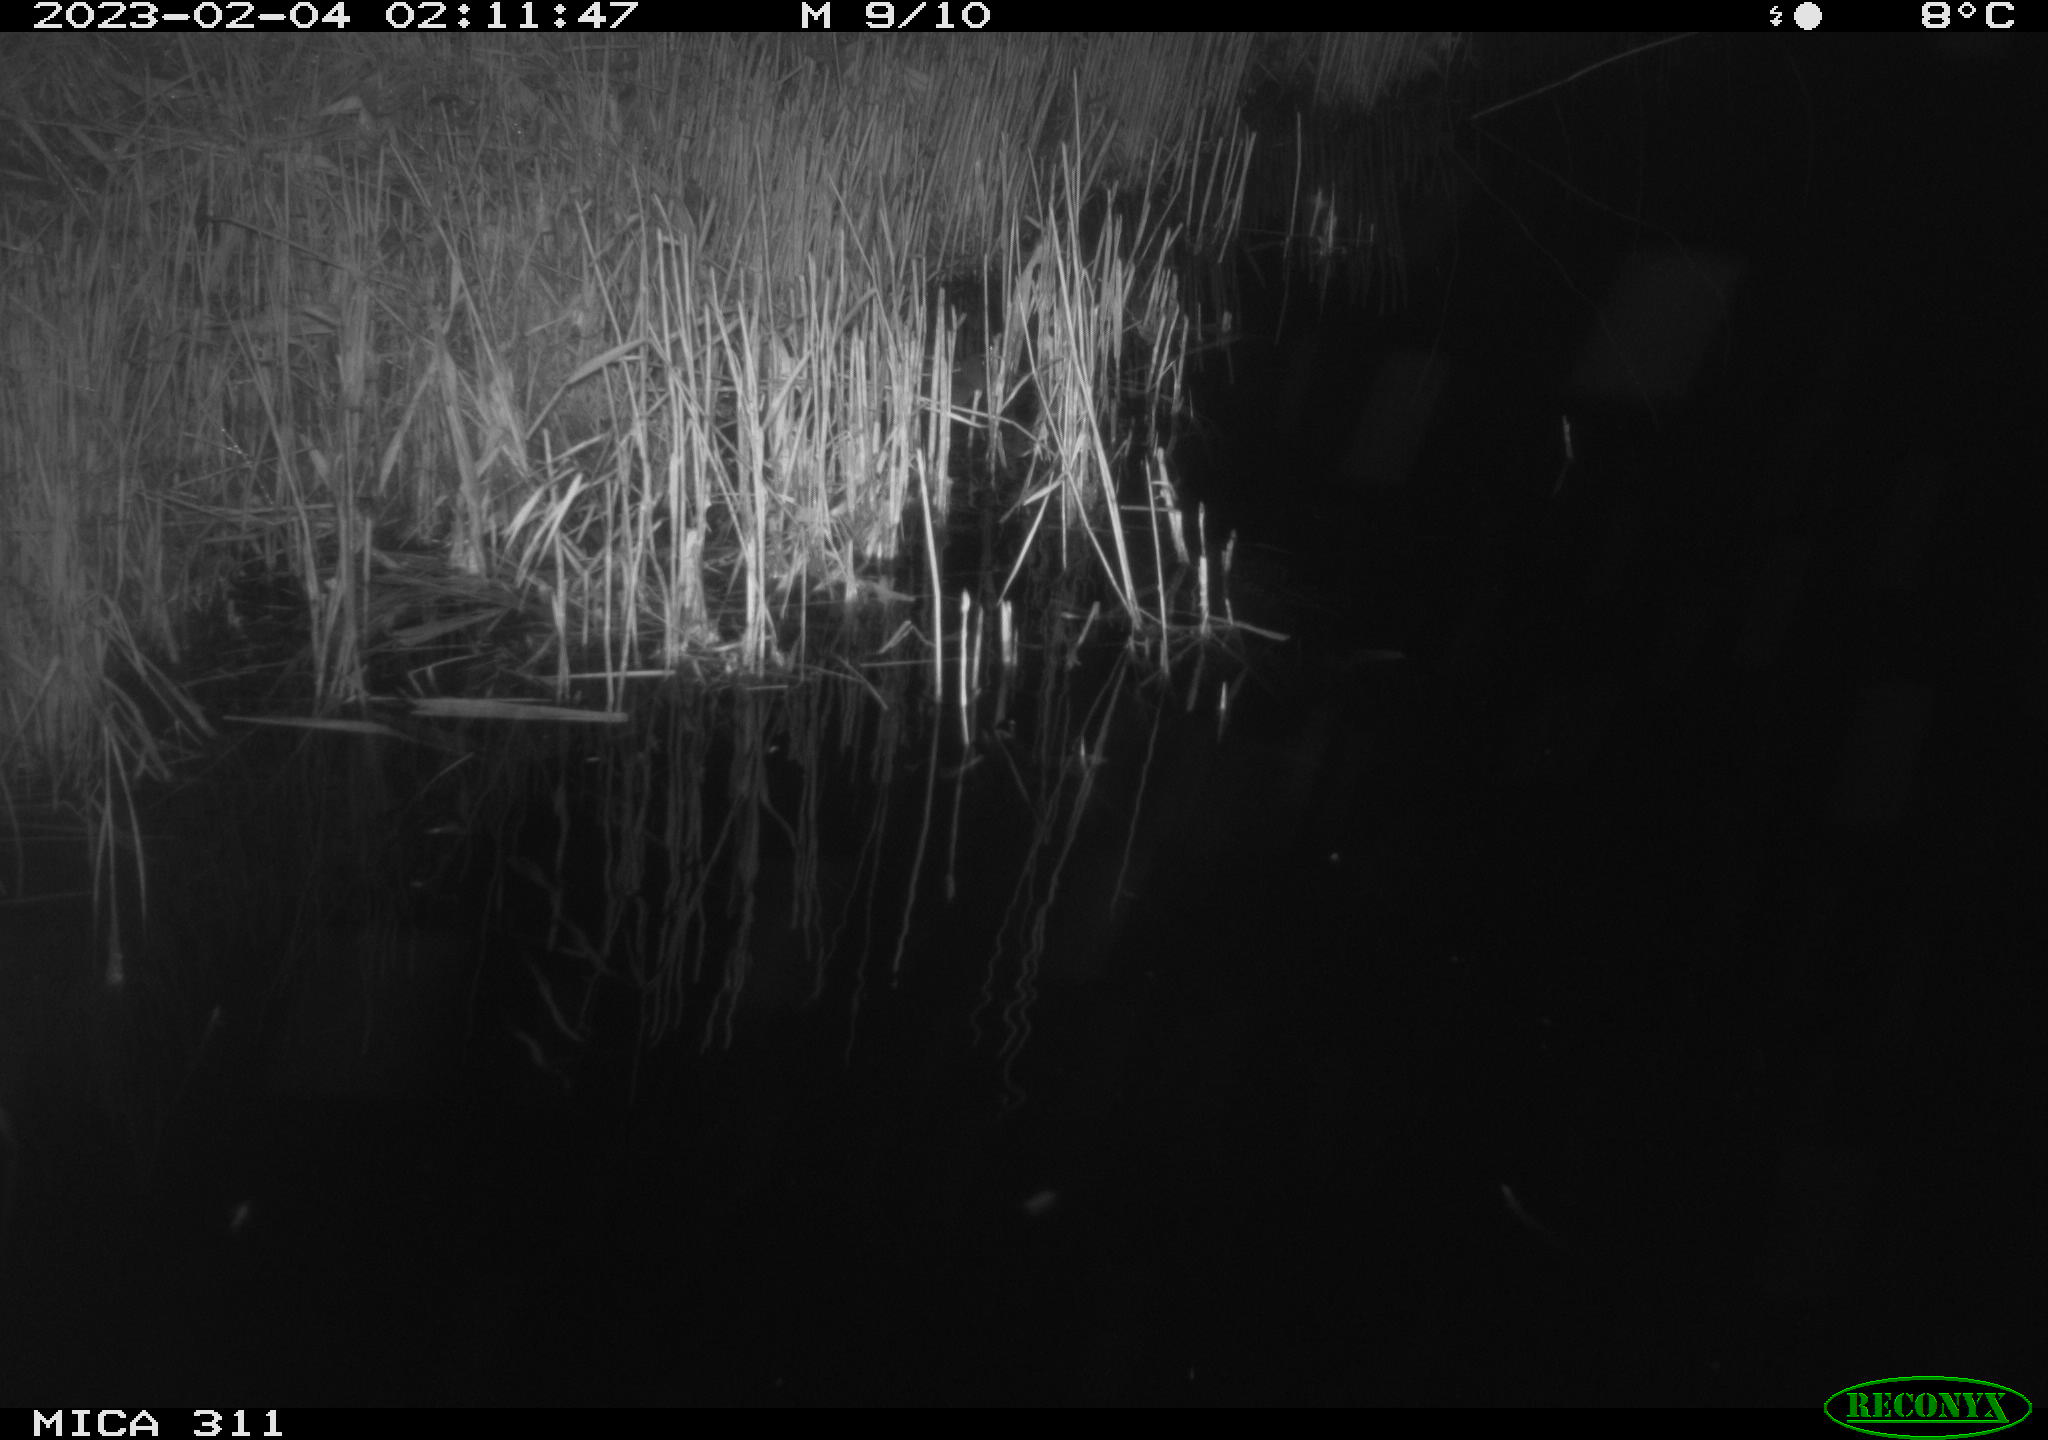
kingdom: Animalia
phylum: Chordata
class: Mammalia
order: Rodentia
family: Cricetidae
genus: Ondatra
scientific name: Ondatra zibethicus
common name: Muskrat
